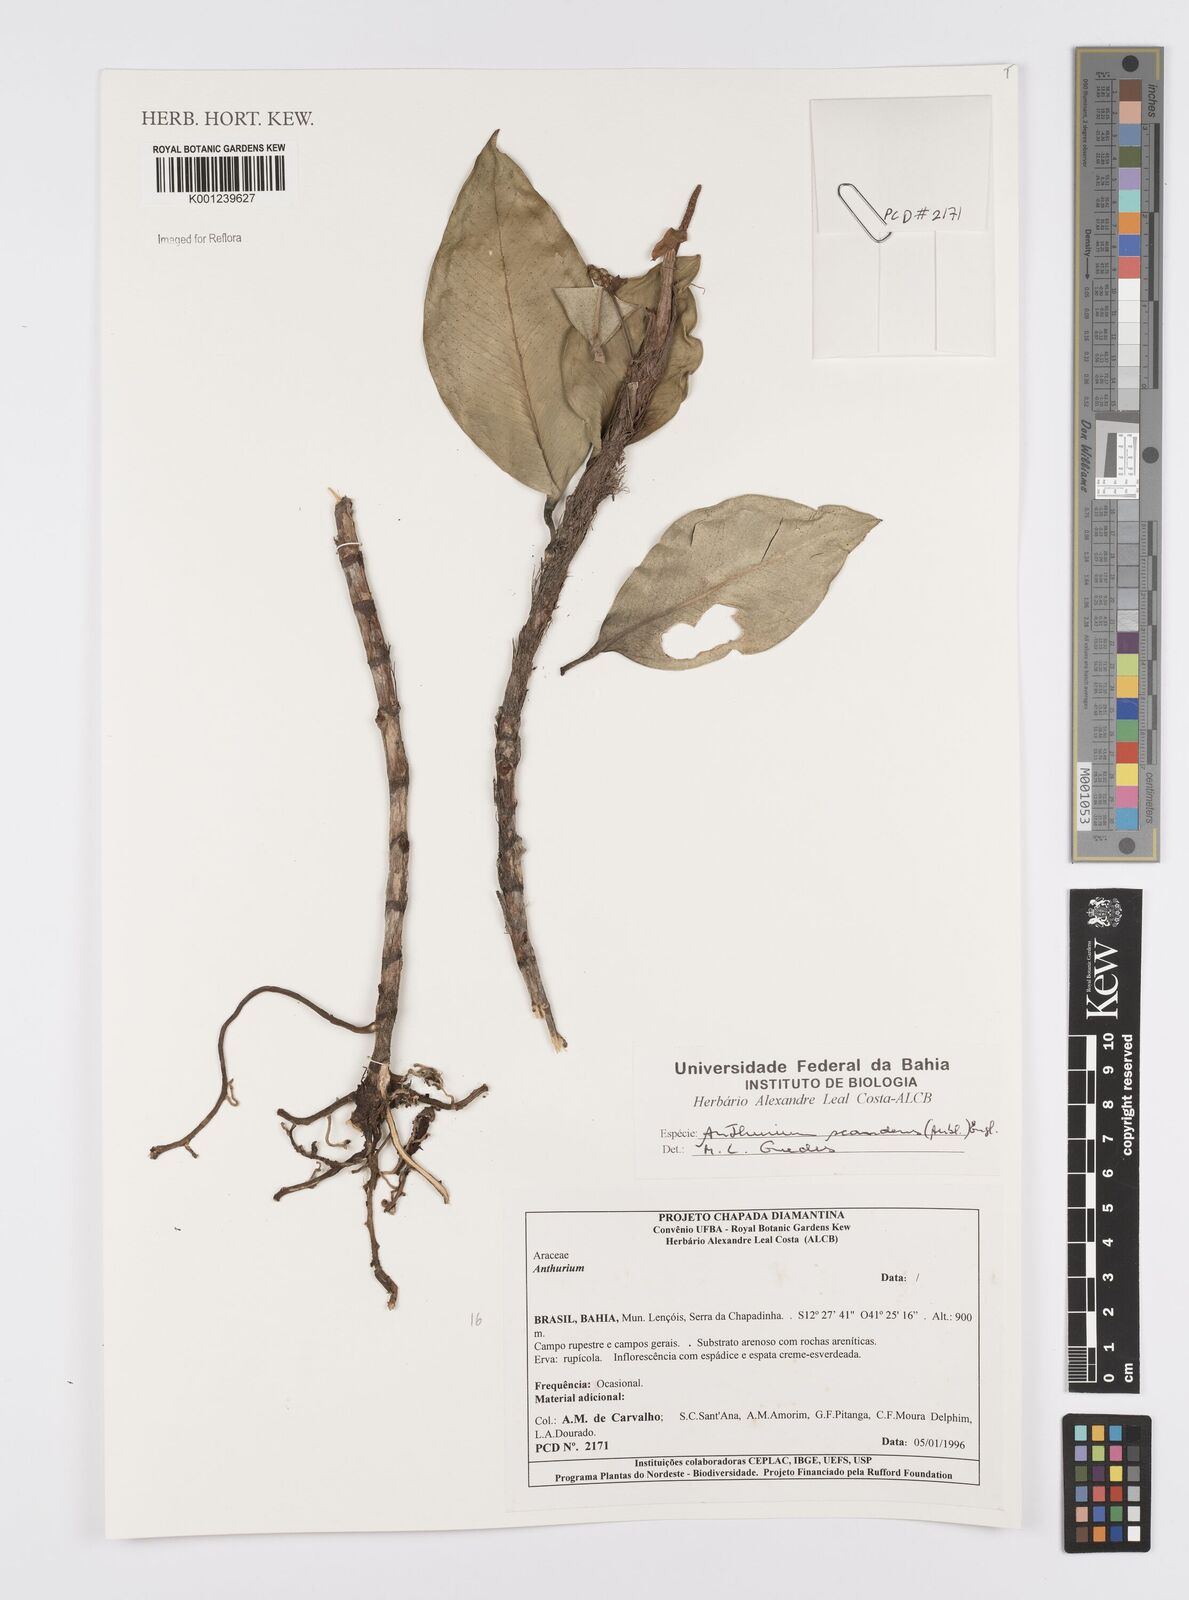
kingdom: Plantae
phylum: Tracheophyta
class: Liliopsida
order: Alismatales
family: Araceae
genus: Anthurium
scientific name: Anthurium scandens
